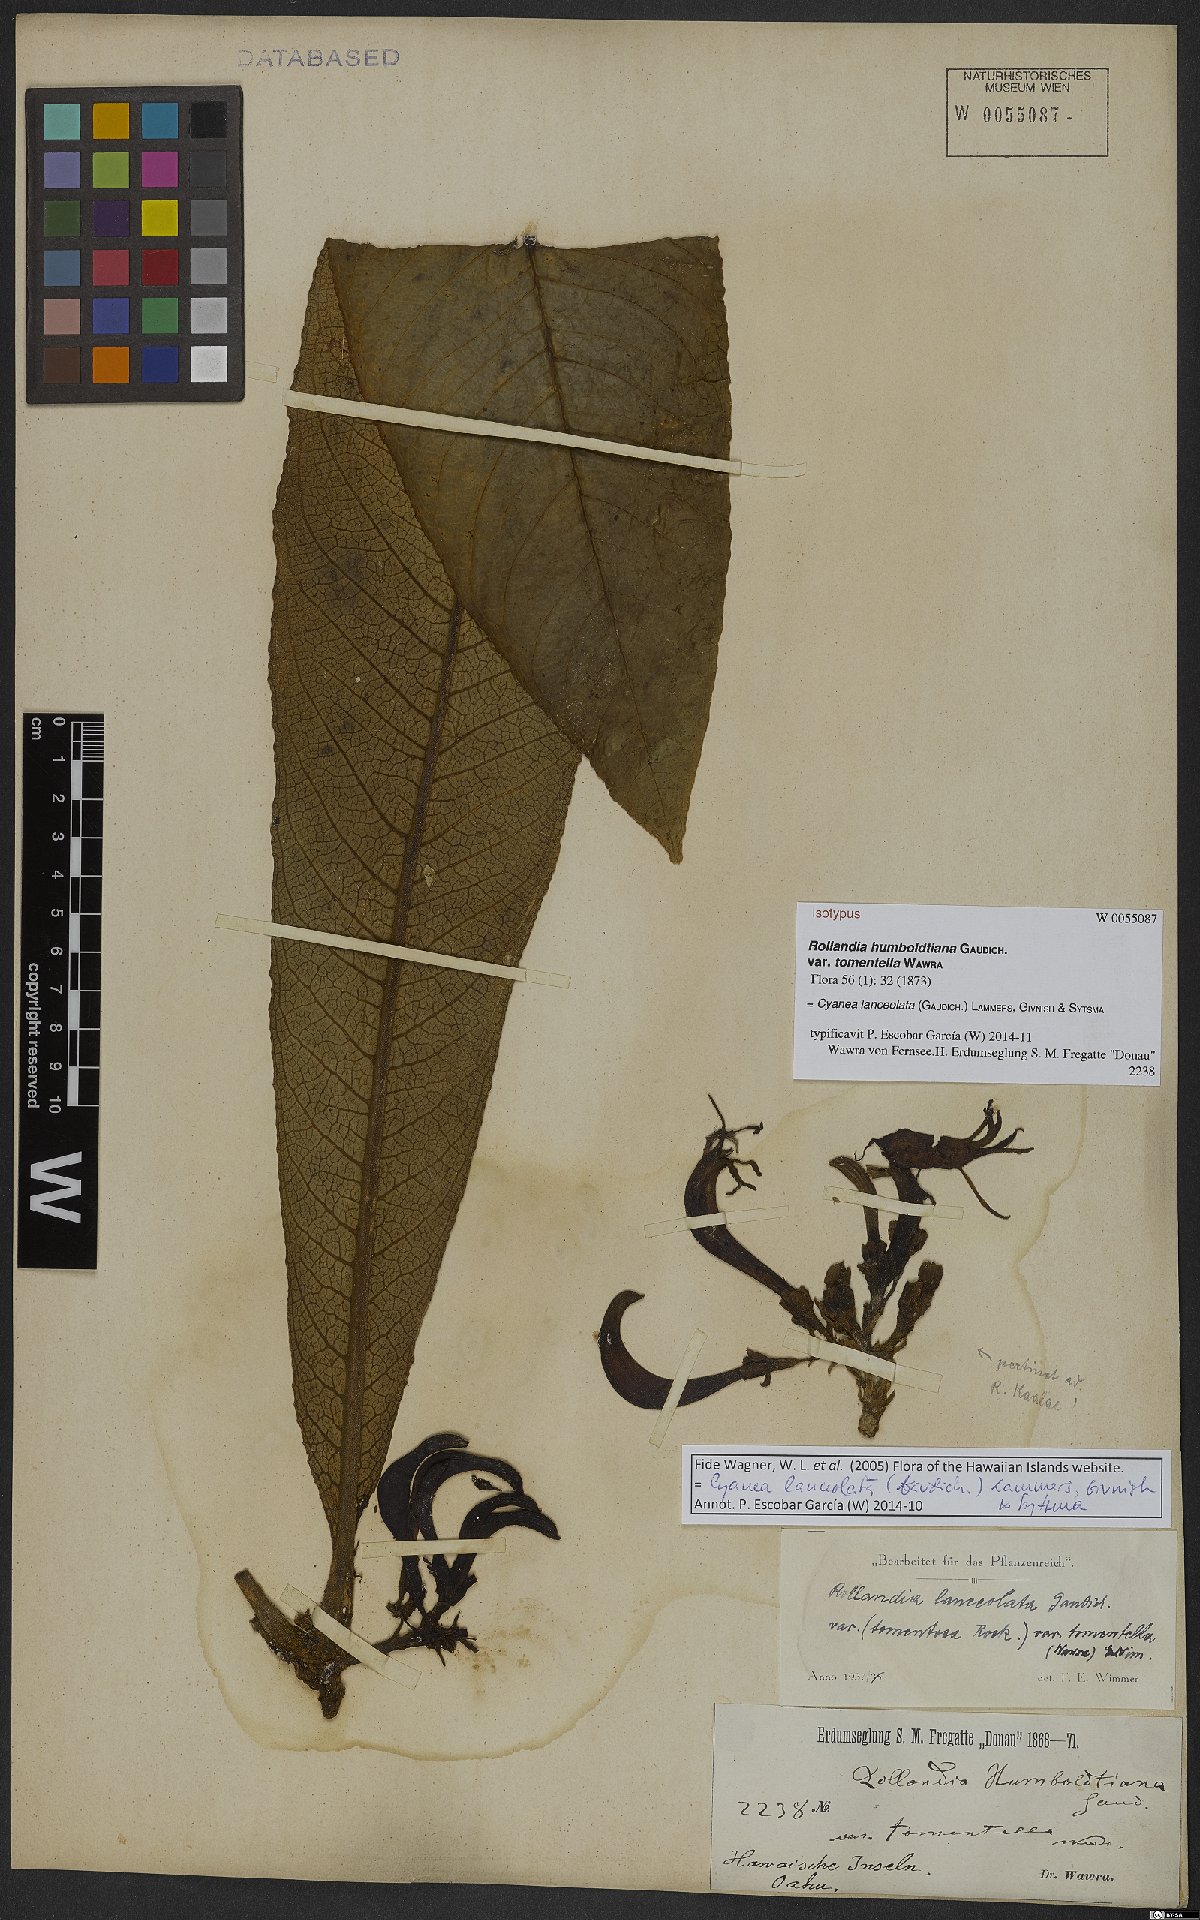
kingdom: Plantae
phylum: Tracheophyta
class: Magnoliopsida
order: Asterales
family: Campanulaceae
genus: Cyanea
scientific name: Cyanea lanceolata
